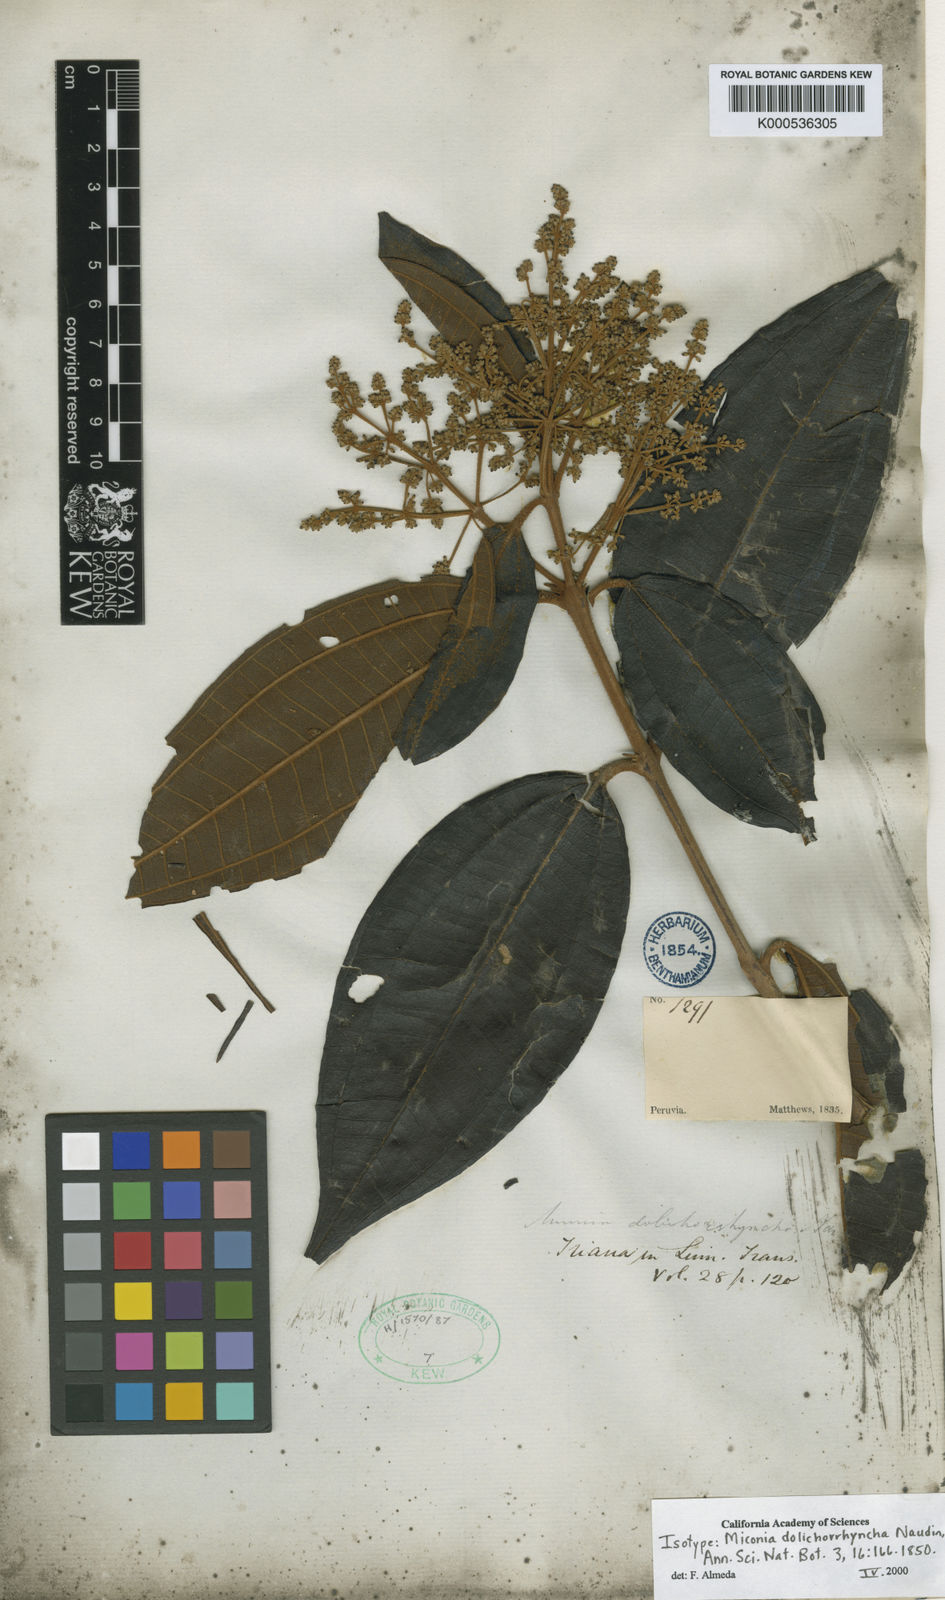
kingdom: Plantae
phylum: Tracheophyta
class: Magnoliopsida
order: Myrtales
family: Melastomataceae
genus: Miconia
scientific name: Miconia dolichorrhyncha
